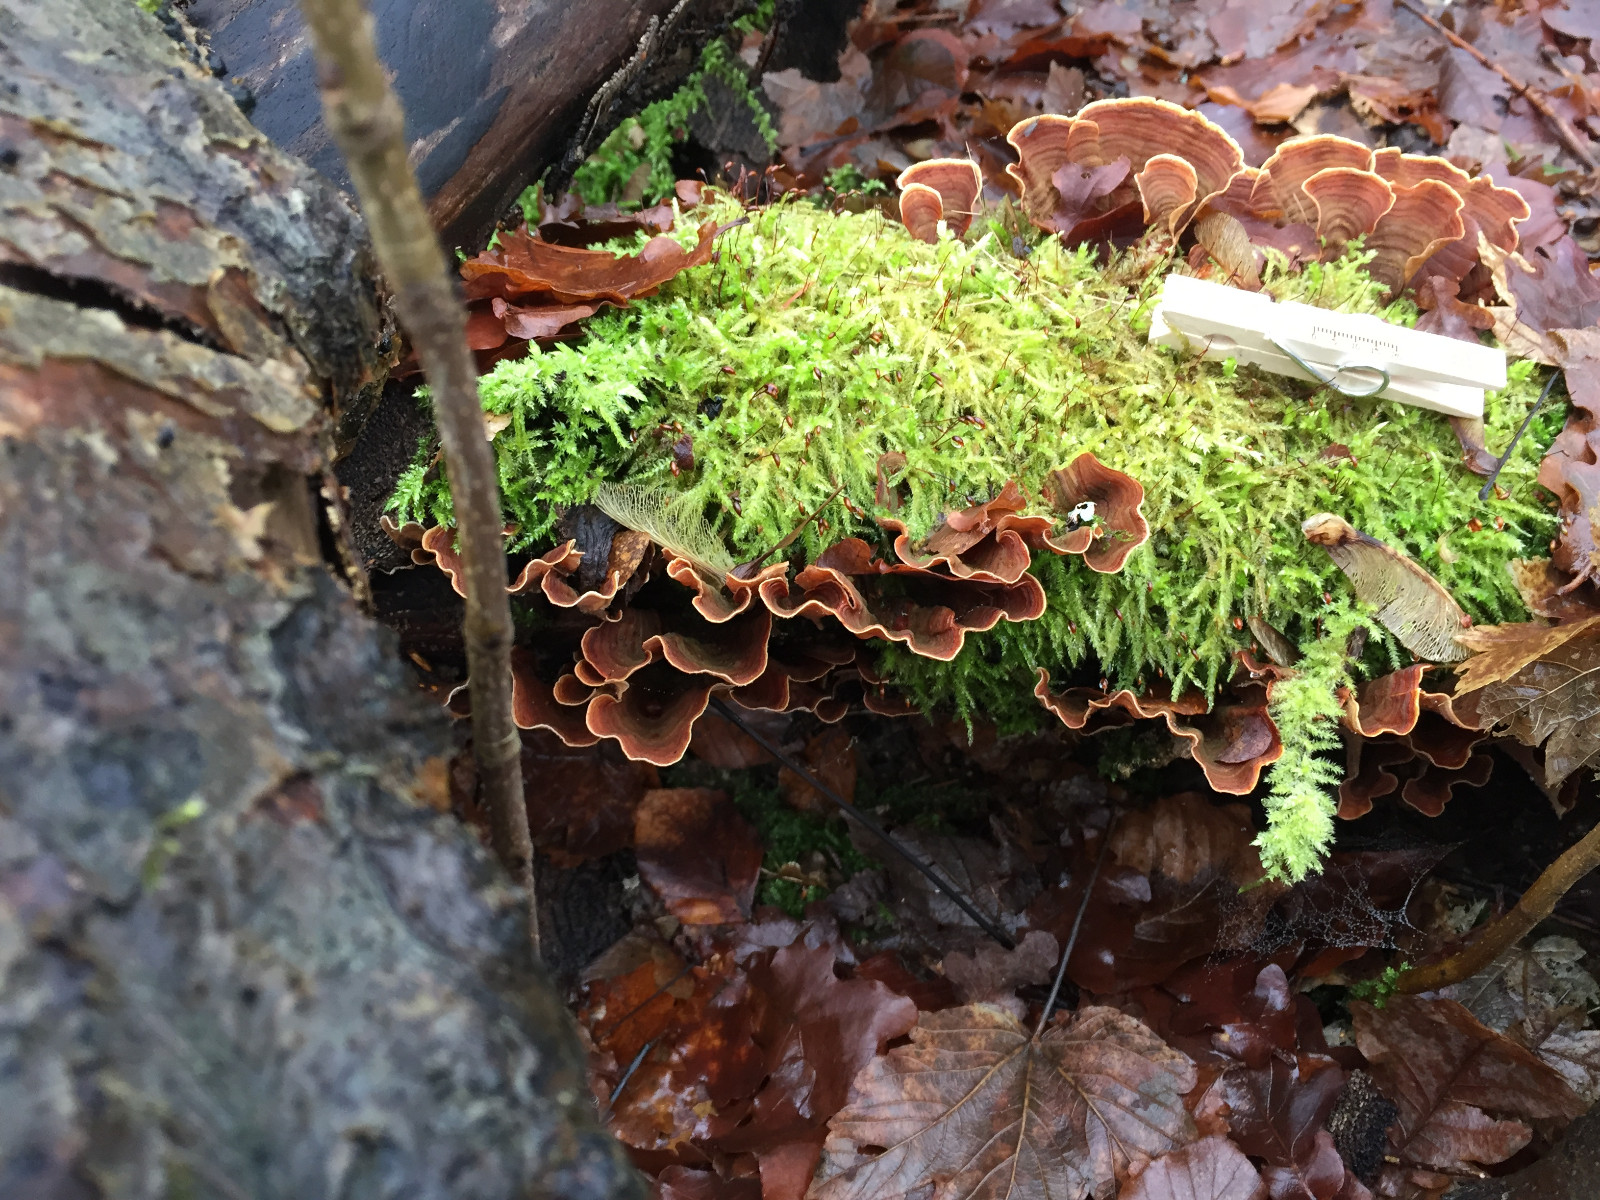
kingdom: Fungi
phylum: Basidiomycota
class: Agaricomycetes
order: Russulales
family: Stereaceae
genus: Stereum
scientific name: Stereum subtomentosum
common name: smuk lædersvamp
